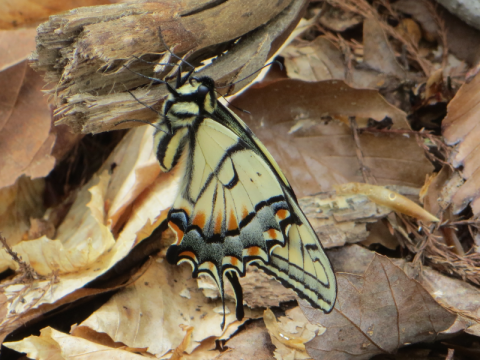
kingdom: Animalia
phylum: Arthropoda
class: Insecta
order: Lepidoptera
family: Papilionidae
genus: Pterourus
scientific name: Pterourus canadensis
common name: Canadian Tiger Swallowtail
